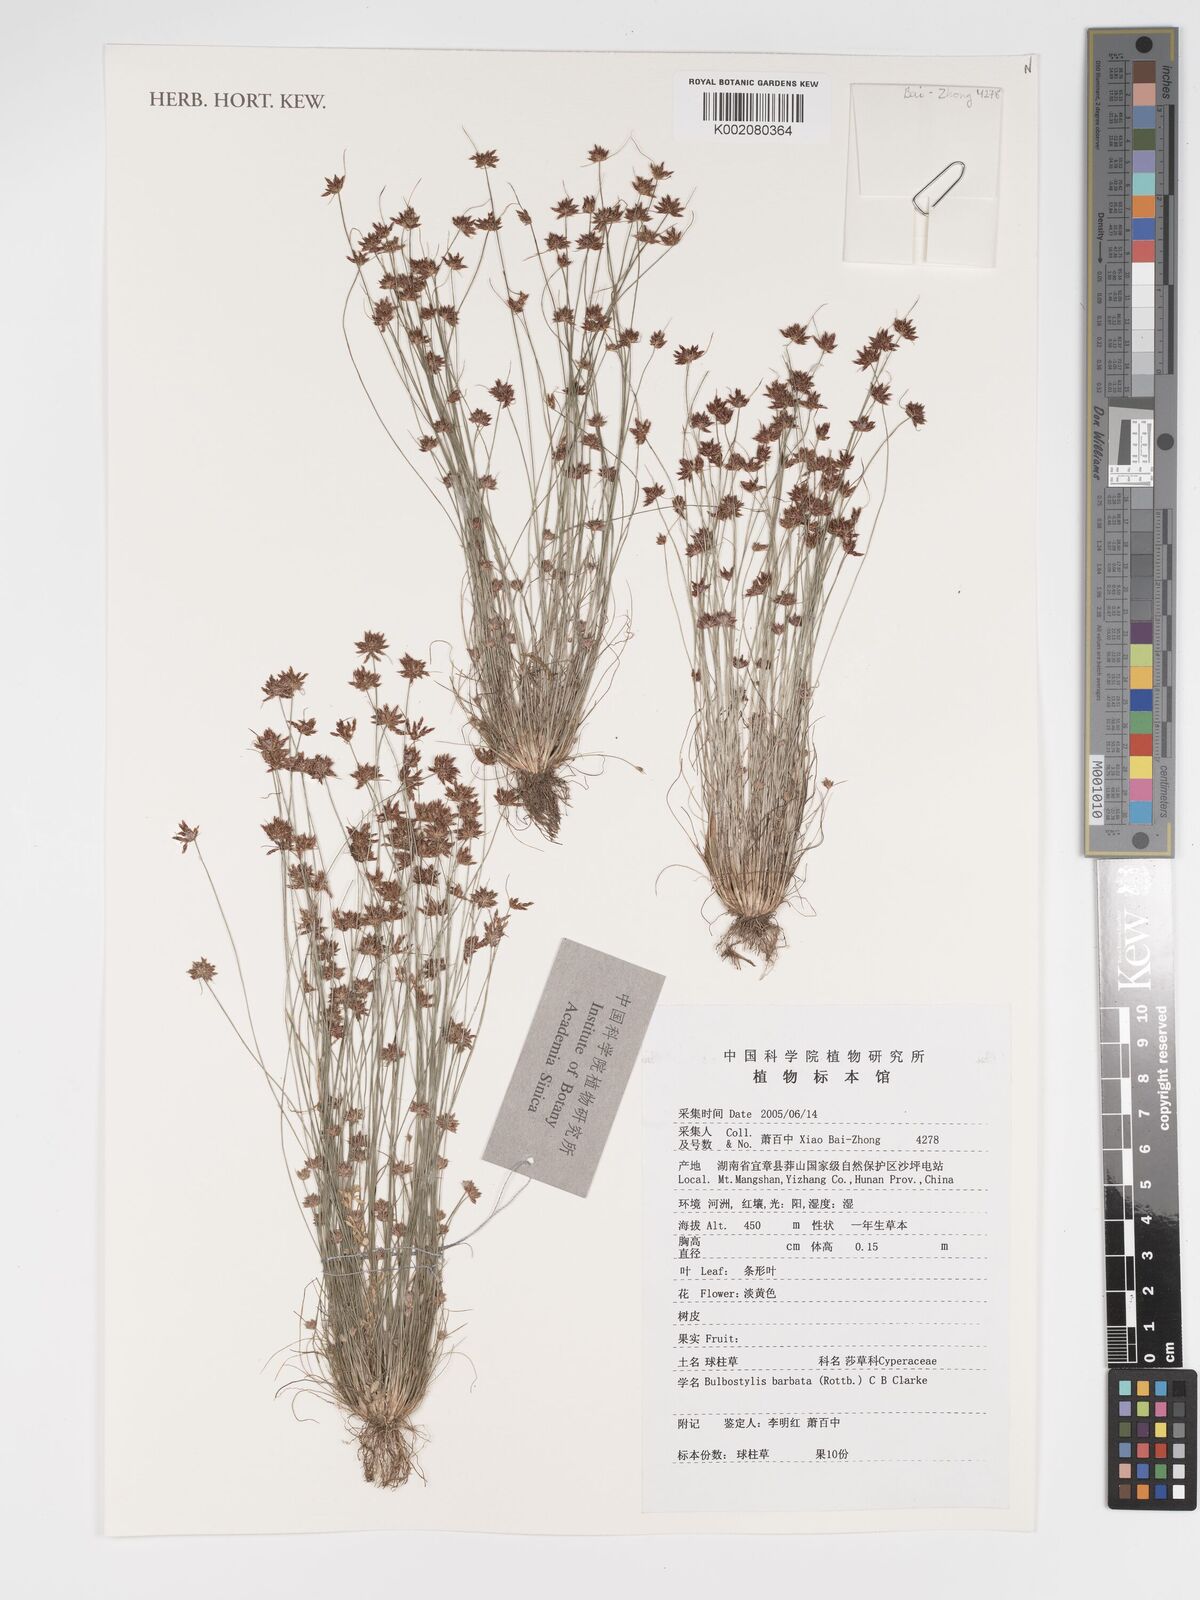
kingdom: Plantae
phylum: Tracheophyta
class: Liliopsida
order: Poales
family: Cyperaceae
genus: Bulbostylis
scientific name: Bulbostylis barbata
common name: Watergrass
